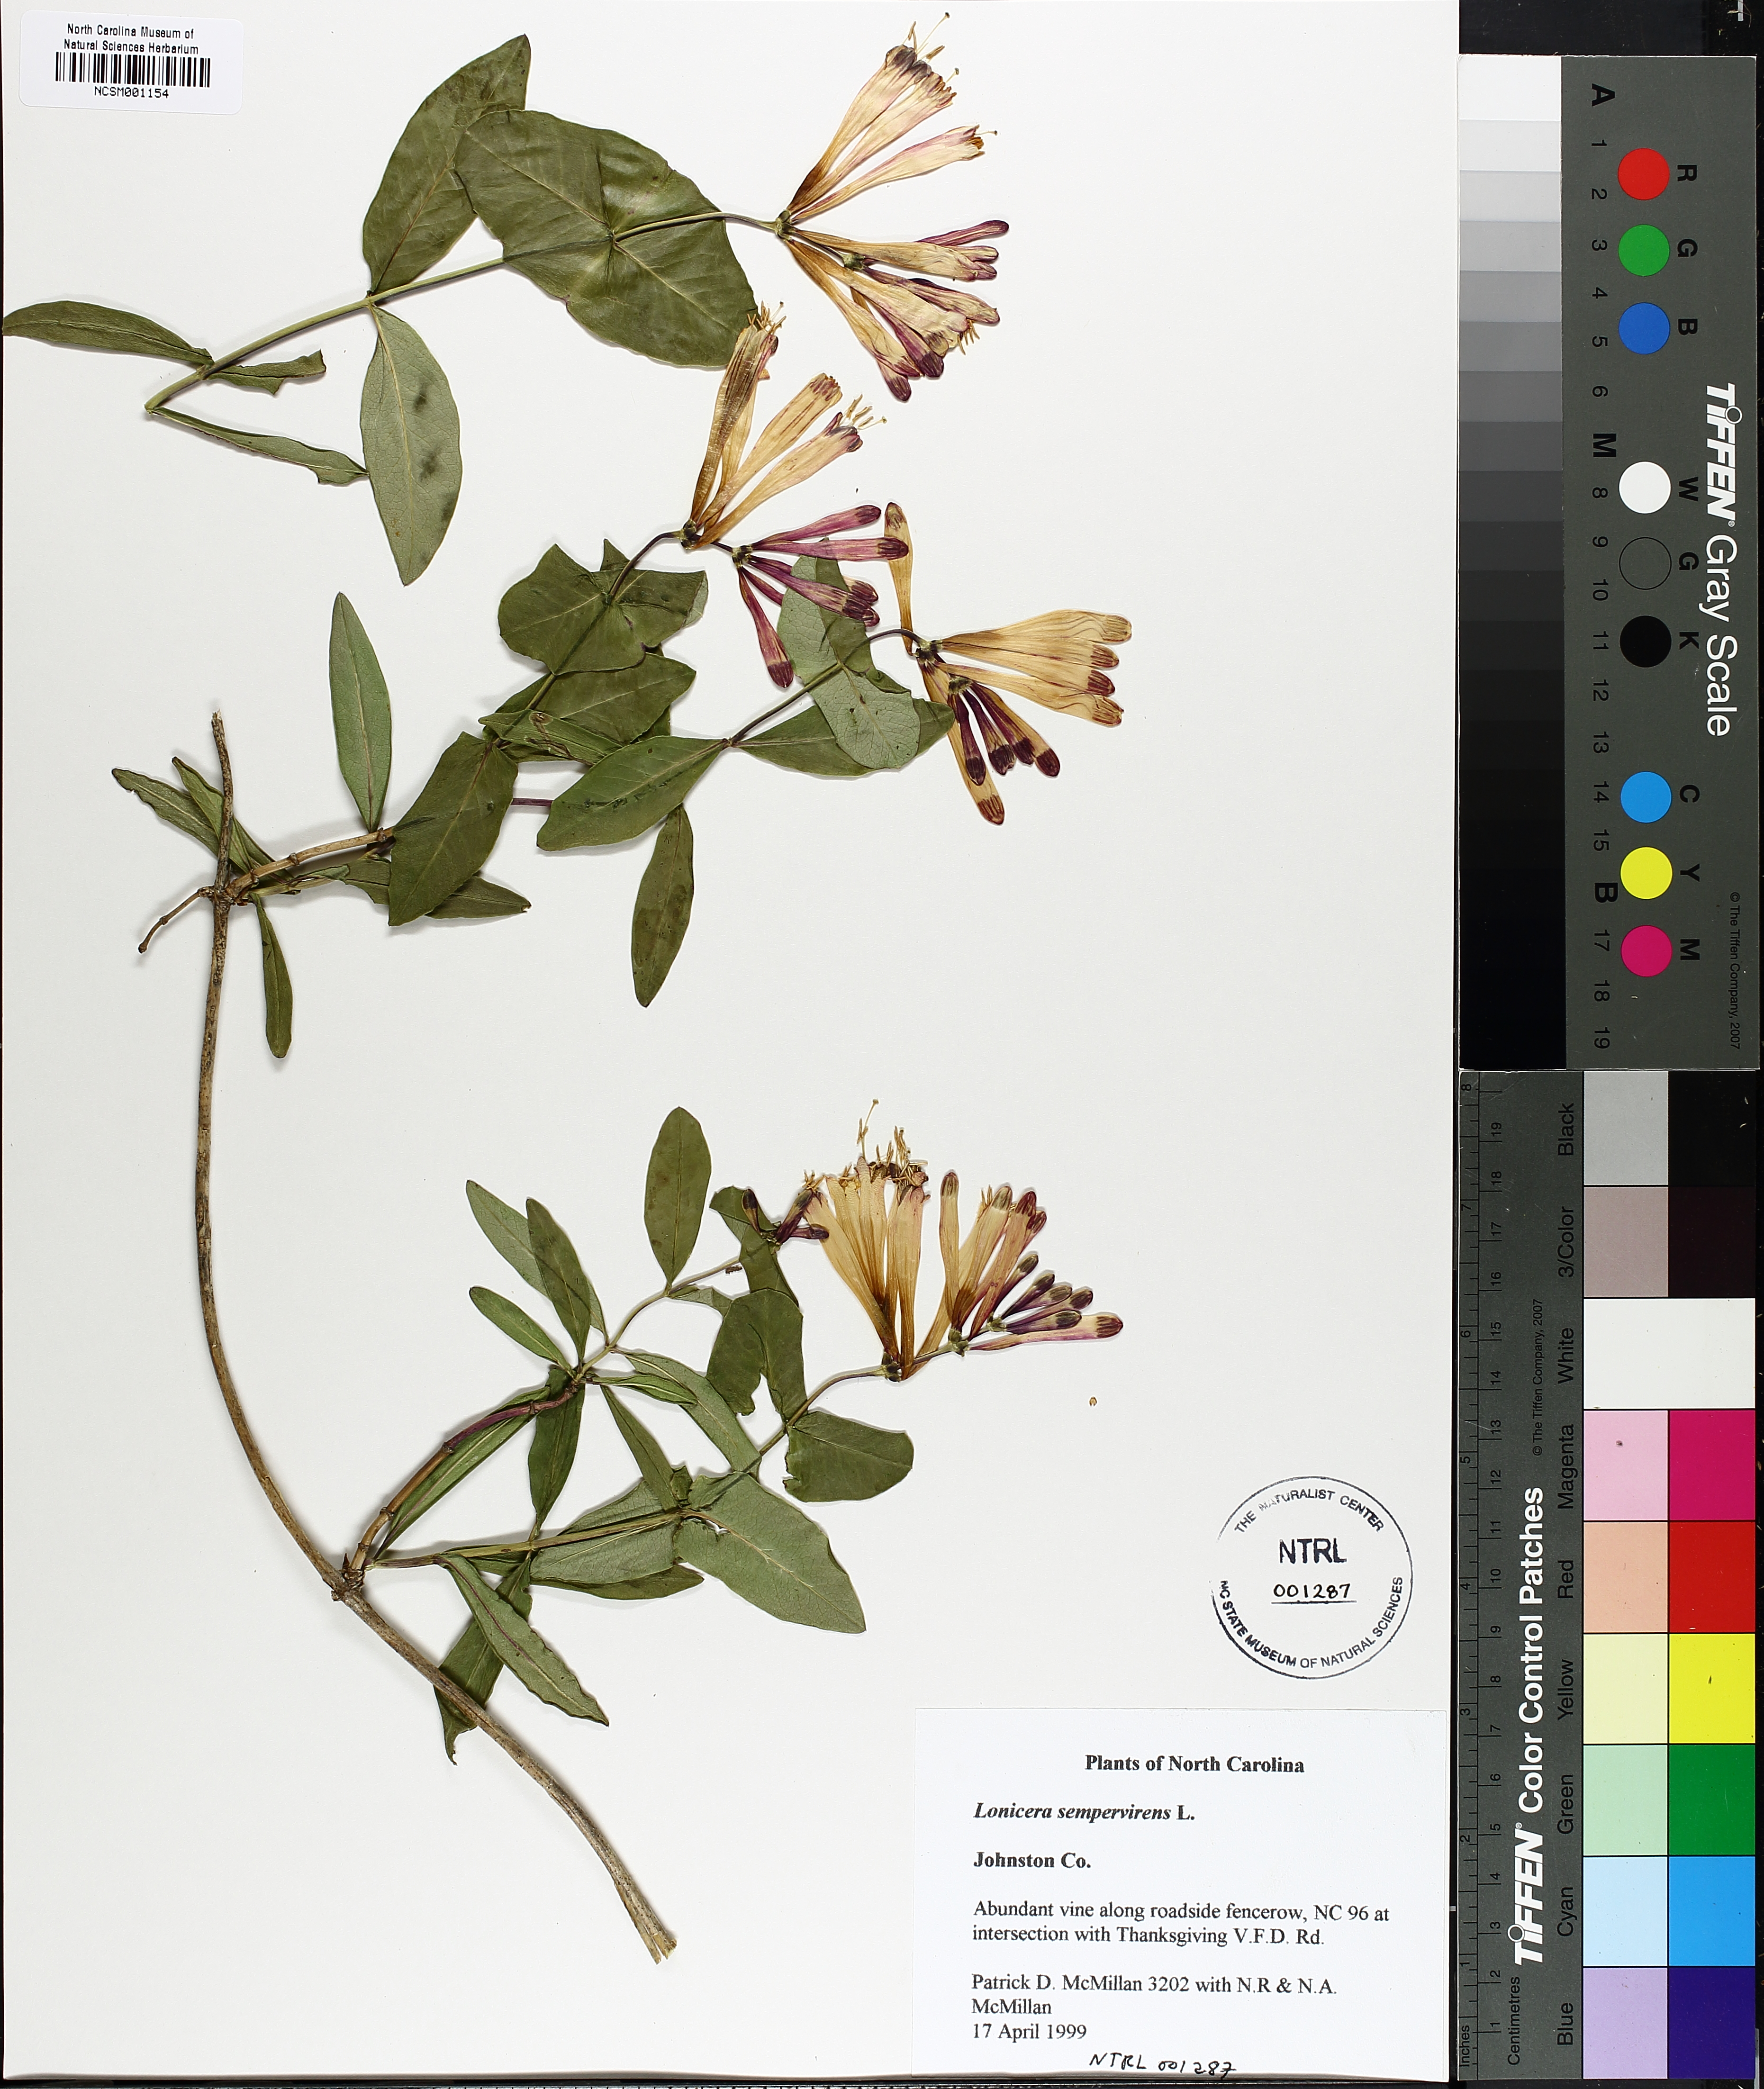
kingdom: Plantae
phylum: Tracheophyta
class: Magnoliopsida
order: Dipsacales
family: Caprifoliaceae
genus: Lonicera
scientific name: Lonicera sempervirens
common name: Coral honeysuckle
